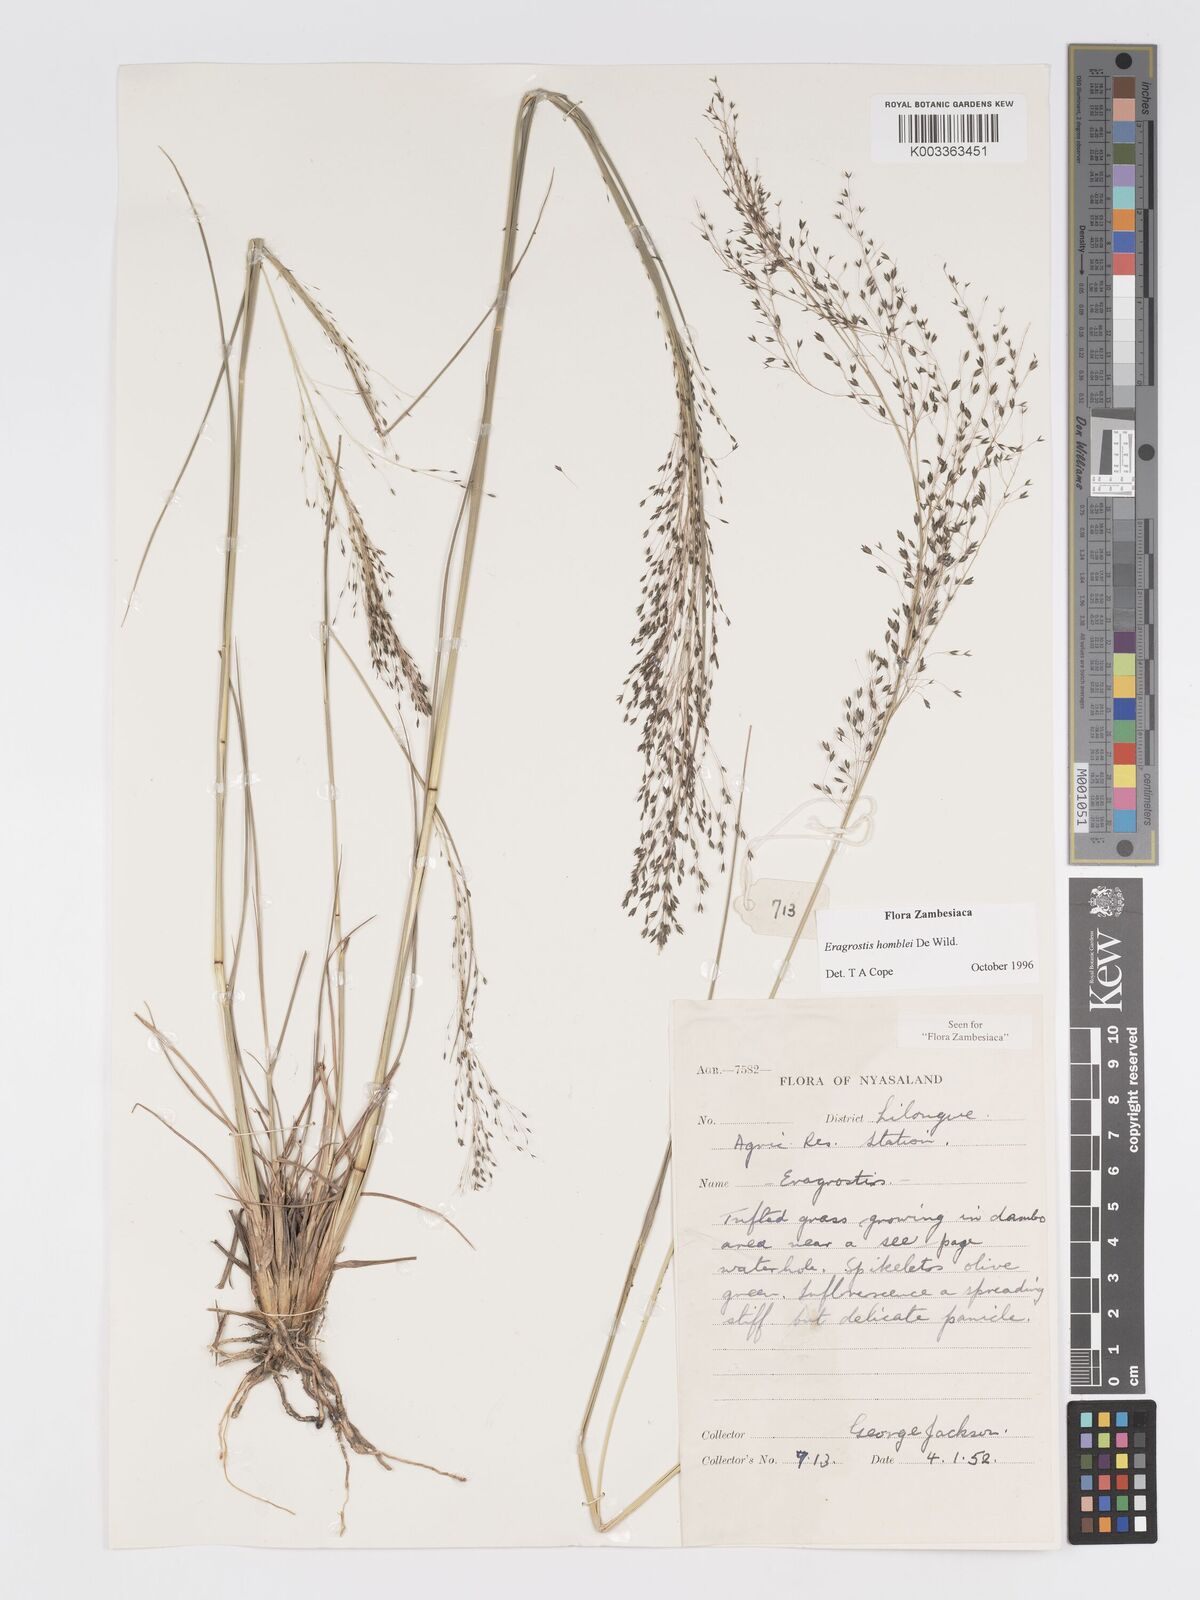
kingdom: Plantae
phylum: Tracheophyta
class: Liliopsida
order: Poales
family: Poaceae
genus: Eragrostis
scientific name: Eragrostis homblei
